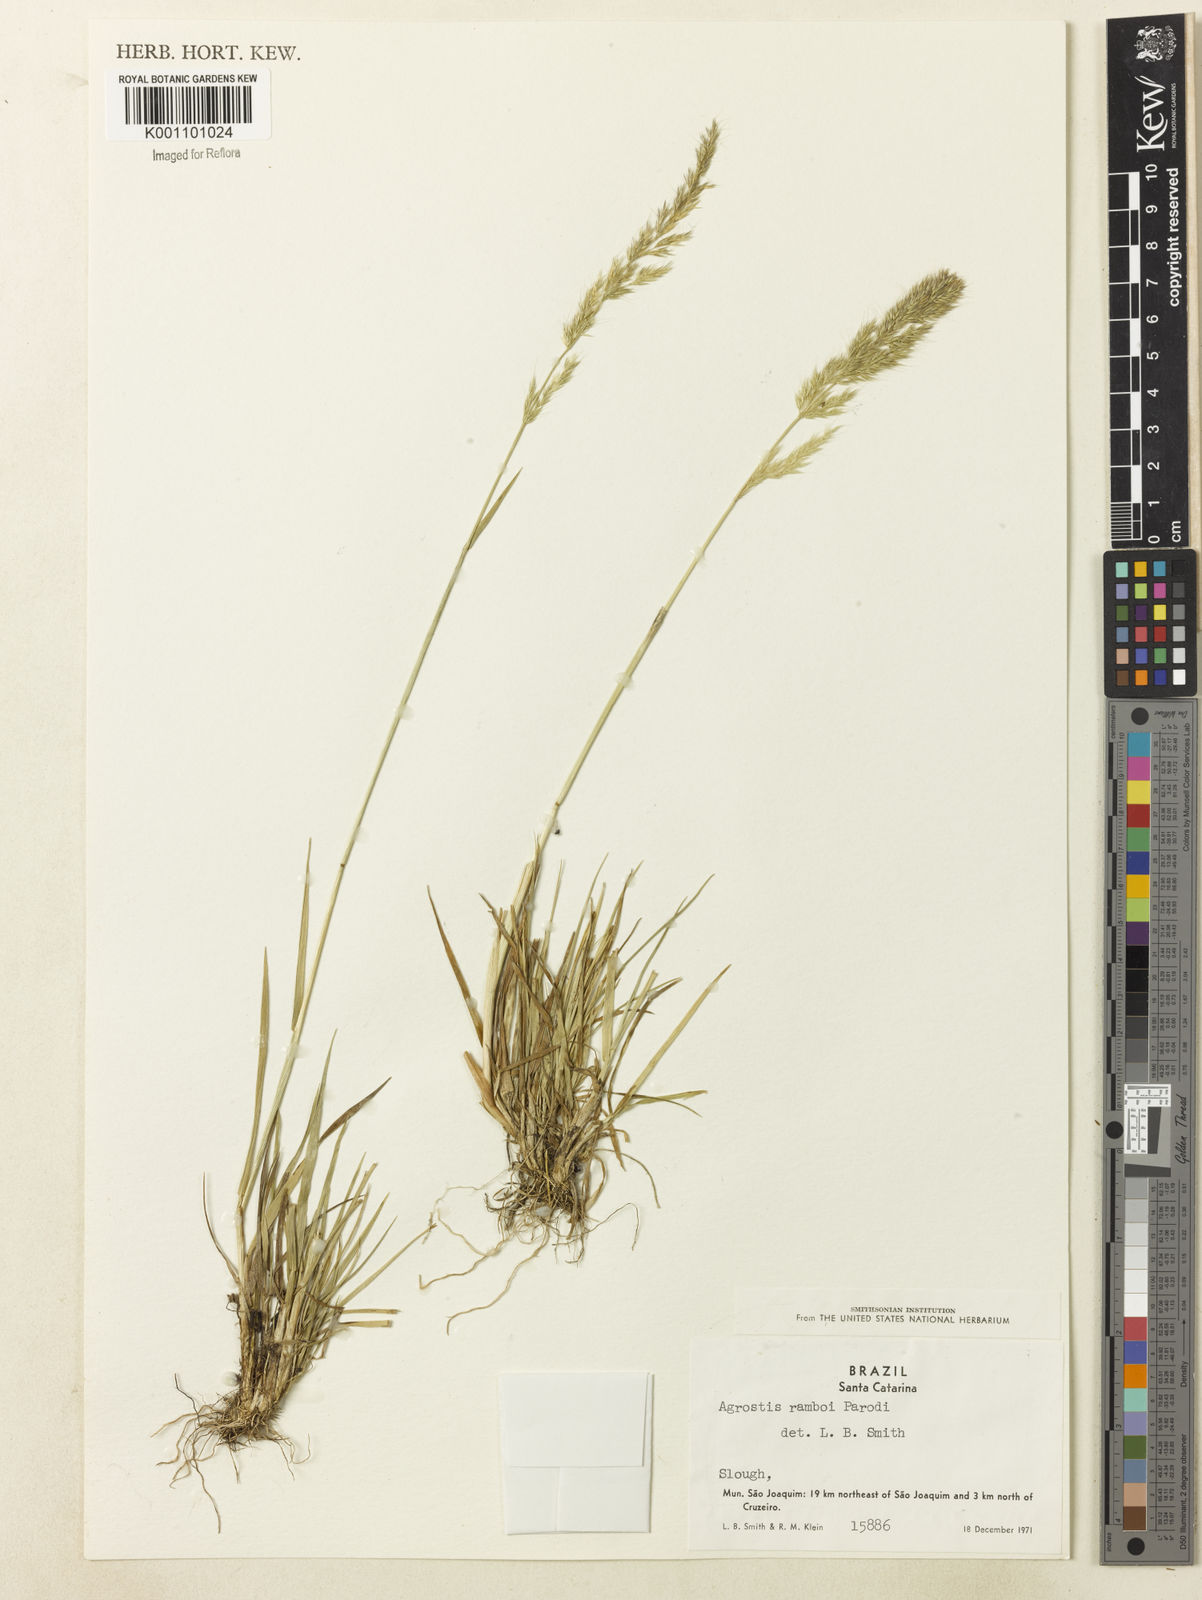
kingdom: Plantae
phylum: Tracheophyta
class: Liliopsida
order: Poales
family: Poaceae
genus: Agrostis
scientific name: Agrostis hygrometrica
